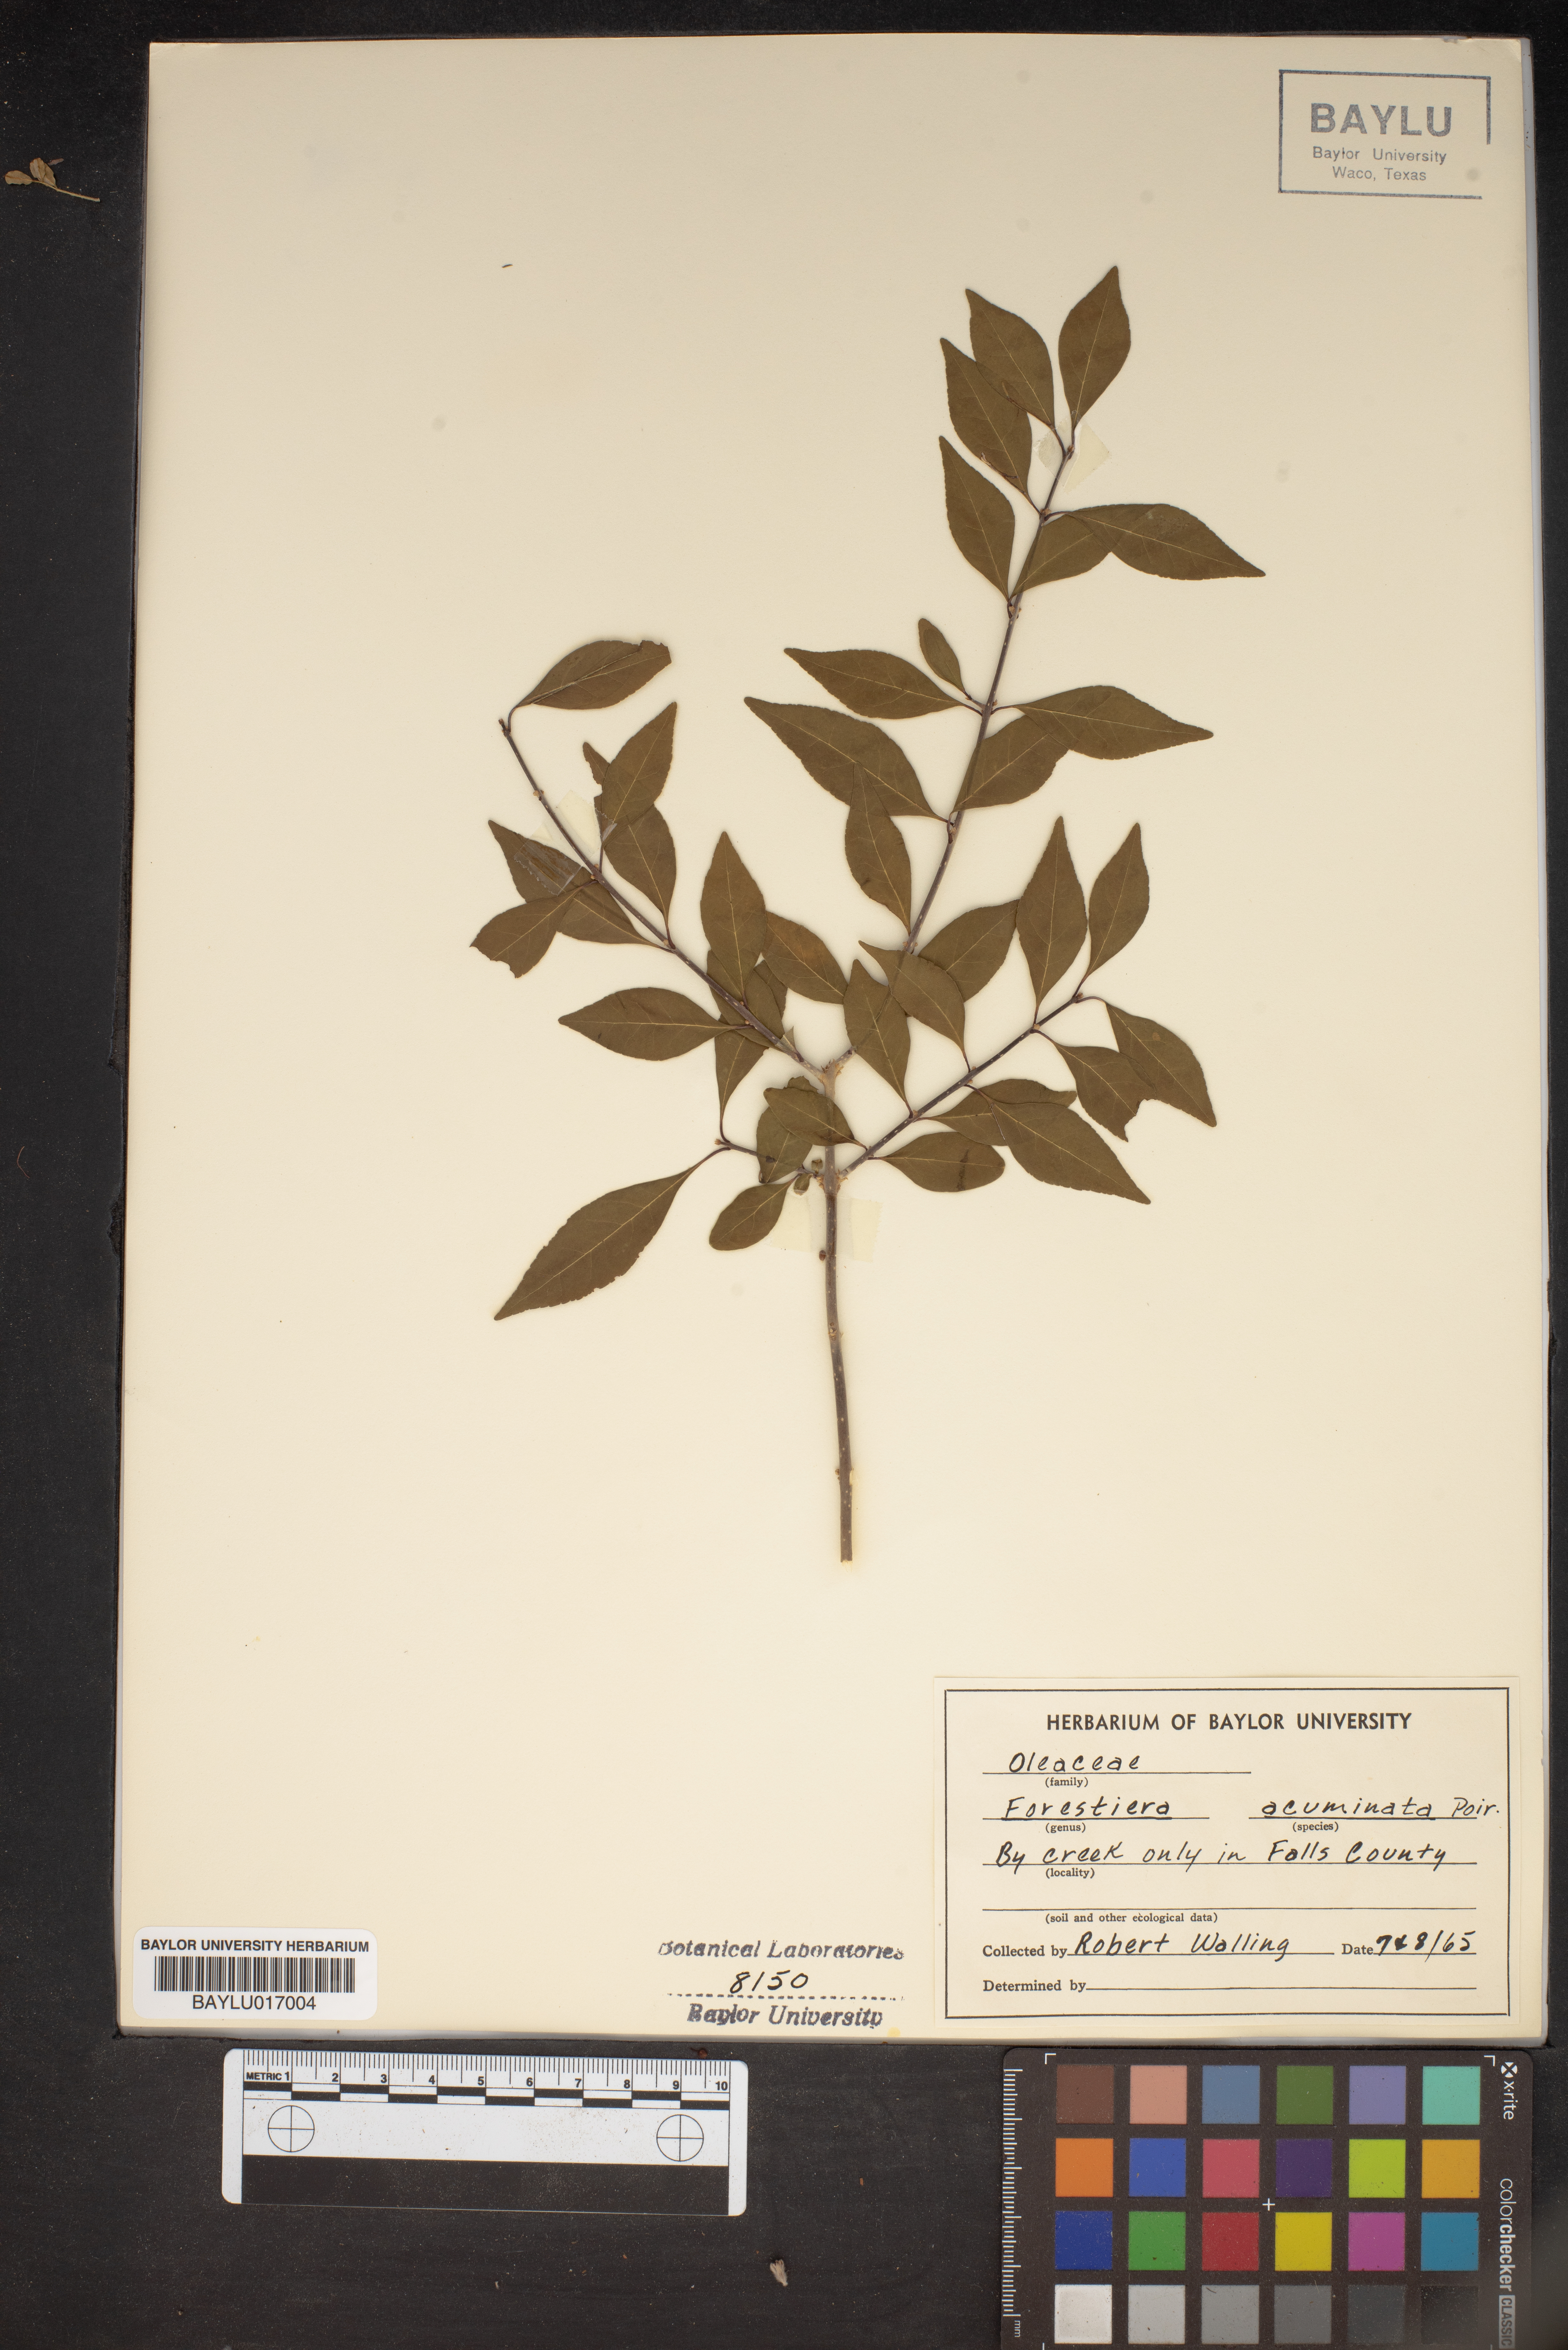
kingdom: Plantae
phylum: Tracheophyta
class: Magnoliopsida
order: Lamiales
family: Oleaceae
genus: Forestiera
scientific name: Forestiera acuminata
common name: Swamp-privet
